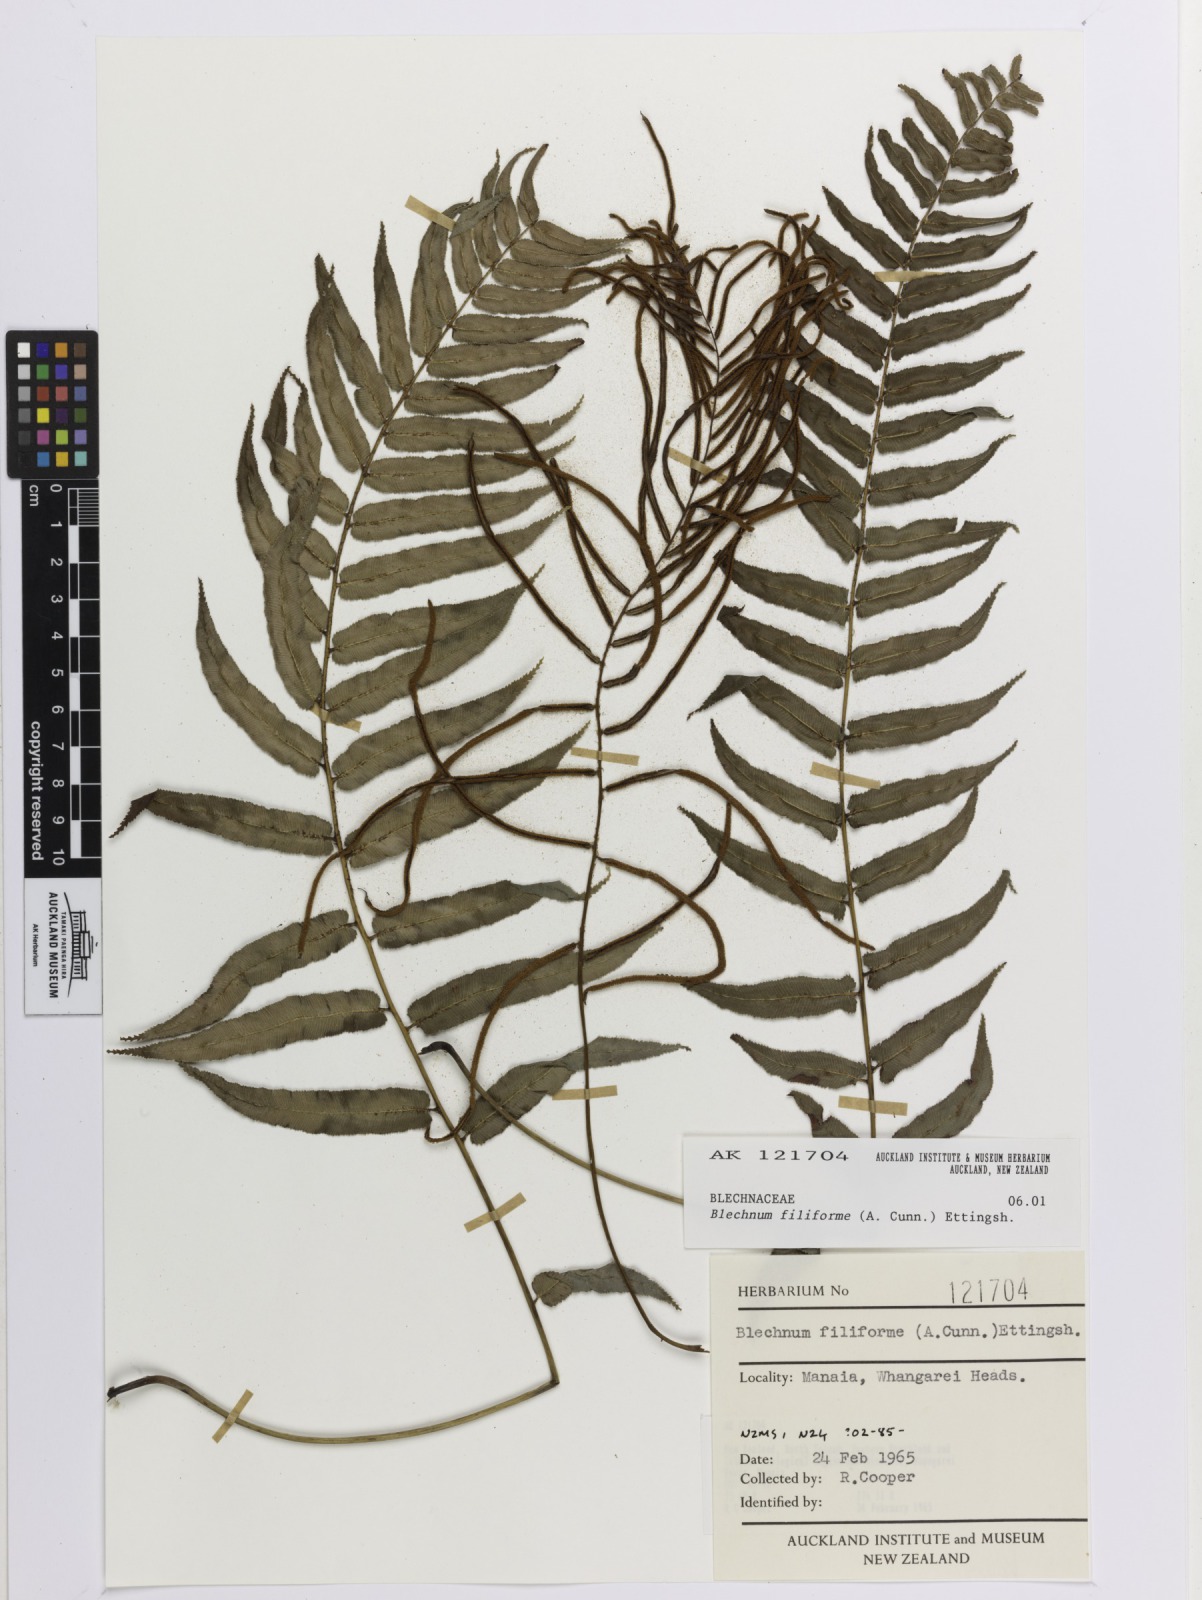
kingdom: Plantae
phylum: Tracheophyta
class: Polypodiopsida
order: Polypodiales
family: Blechnaceae
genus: Icarus
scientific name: Icarus filiformis
